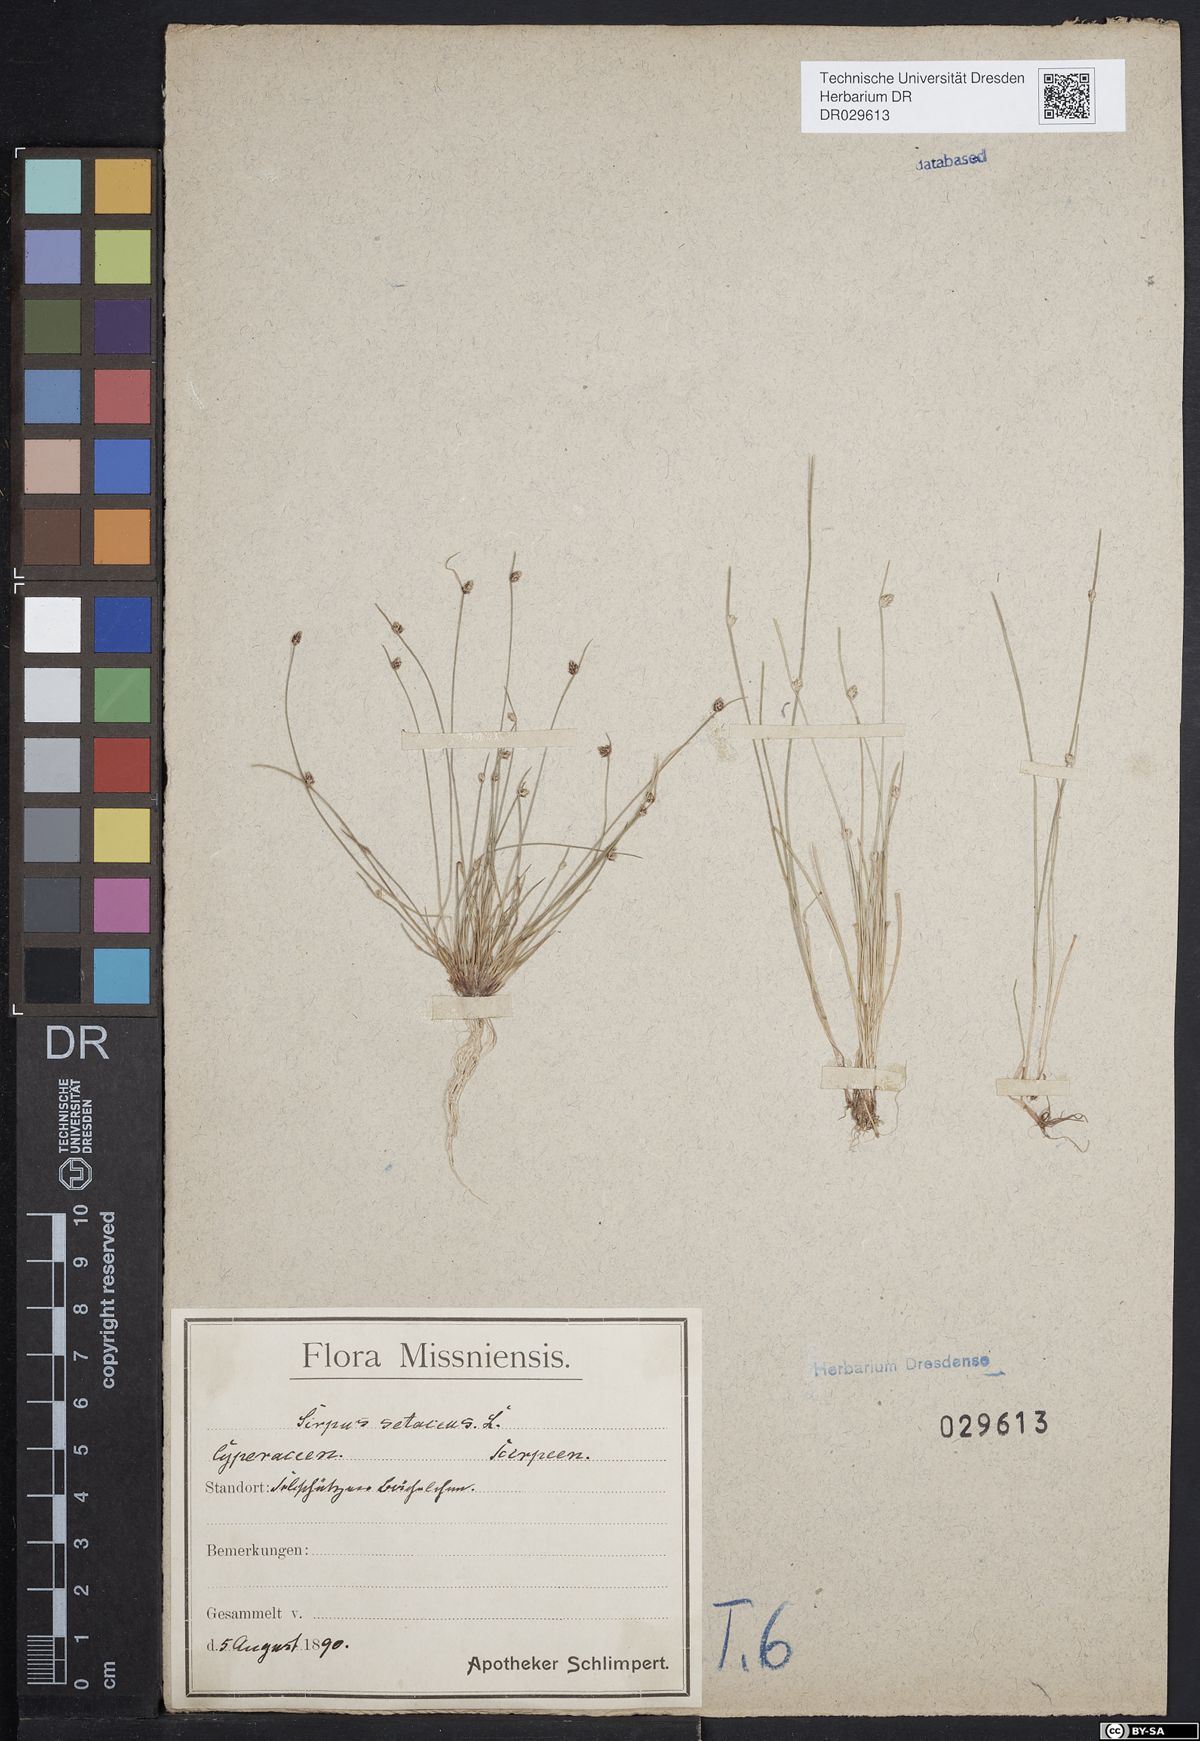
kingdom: Plantae
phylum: Tracheophyta
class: Liliopsida
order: Poales
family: Cyperaceae
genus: Isolepis
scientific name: Isolepis setacea
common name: Bristle club-rush
